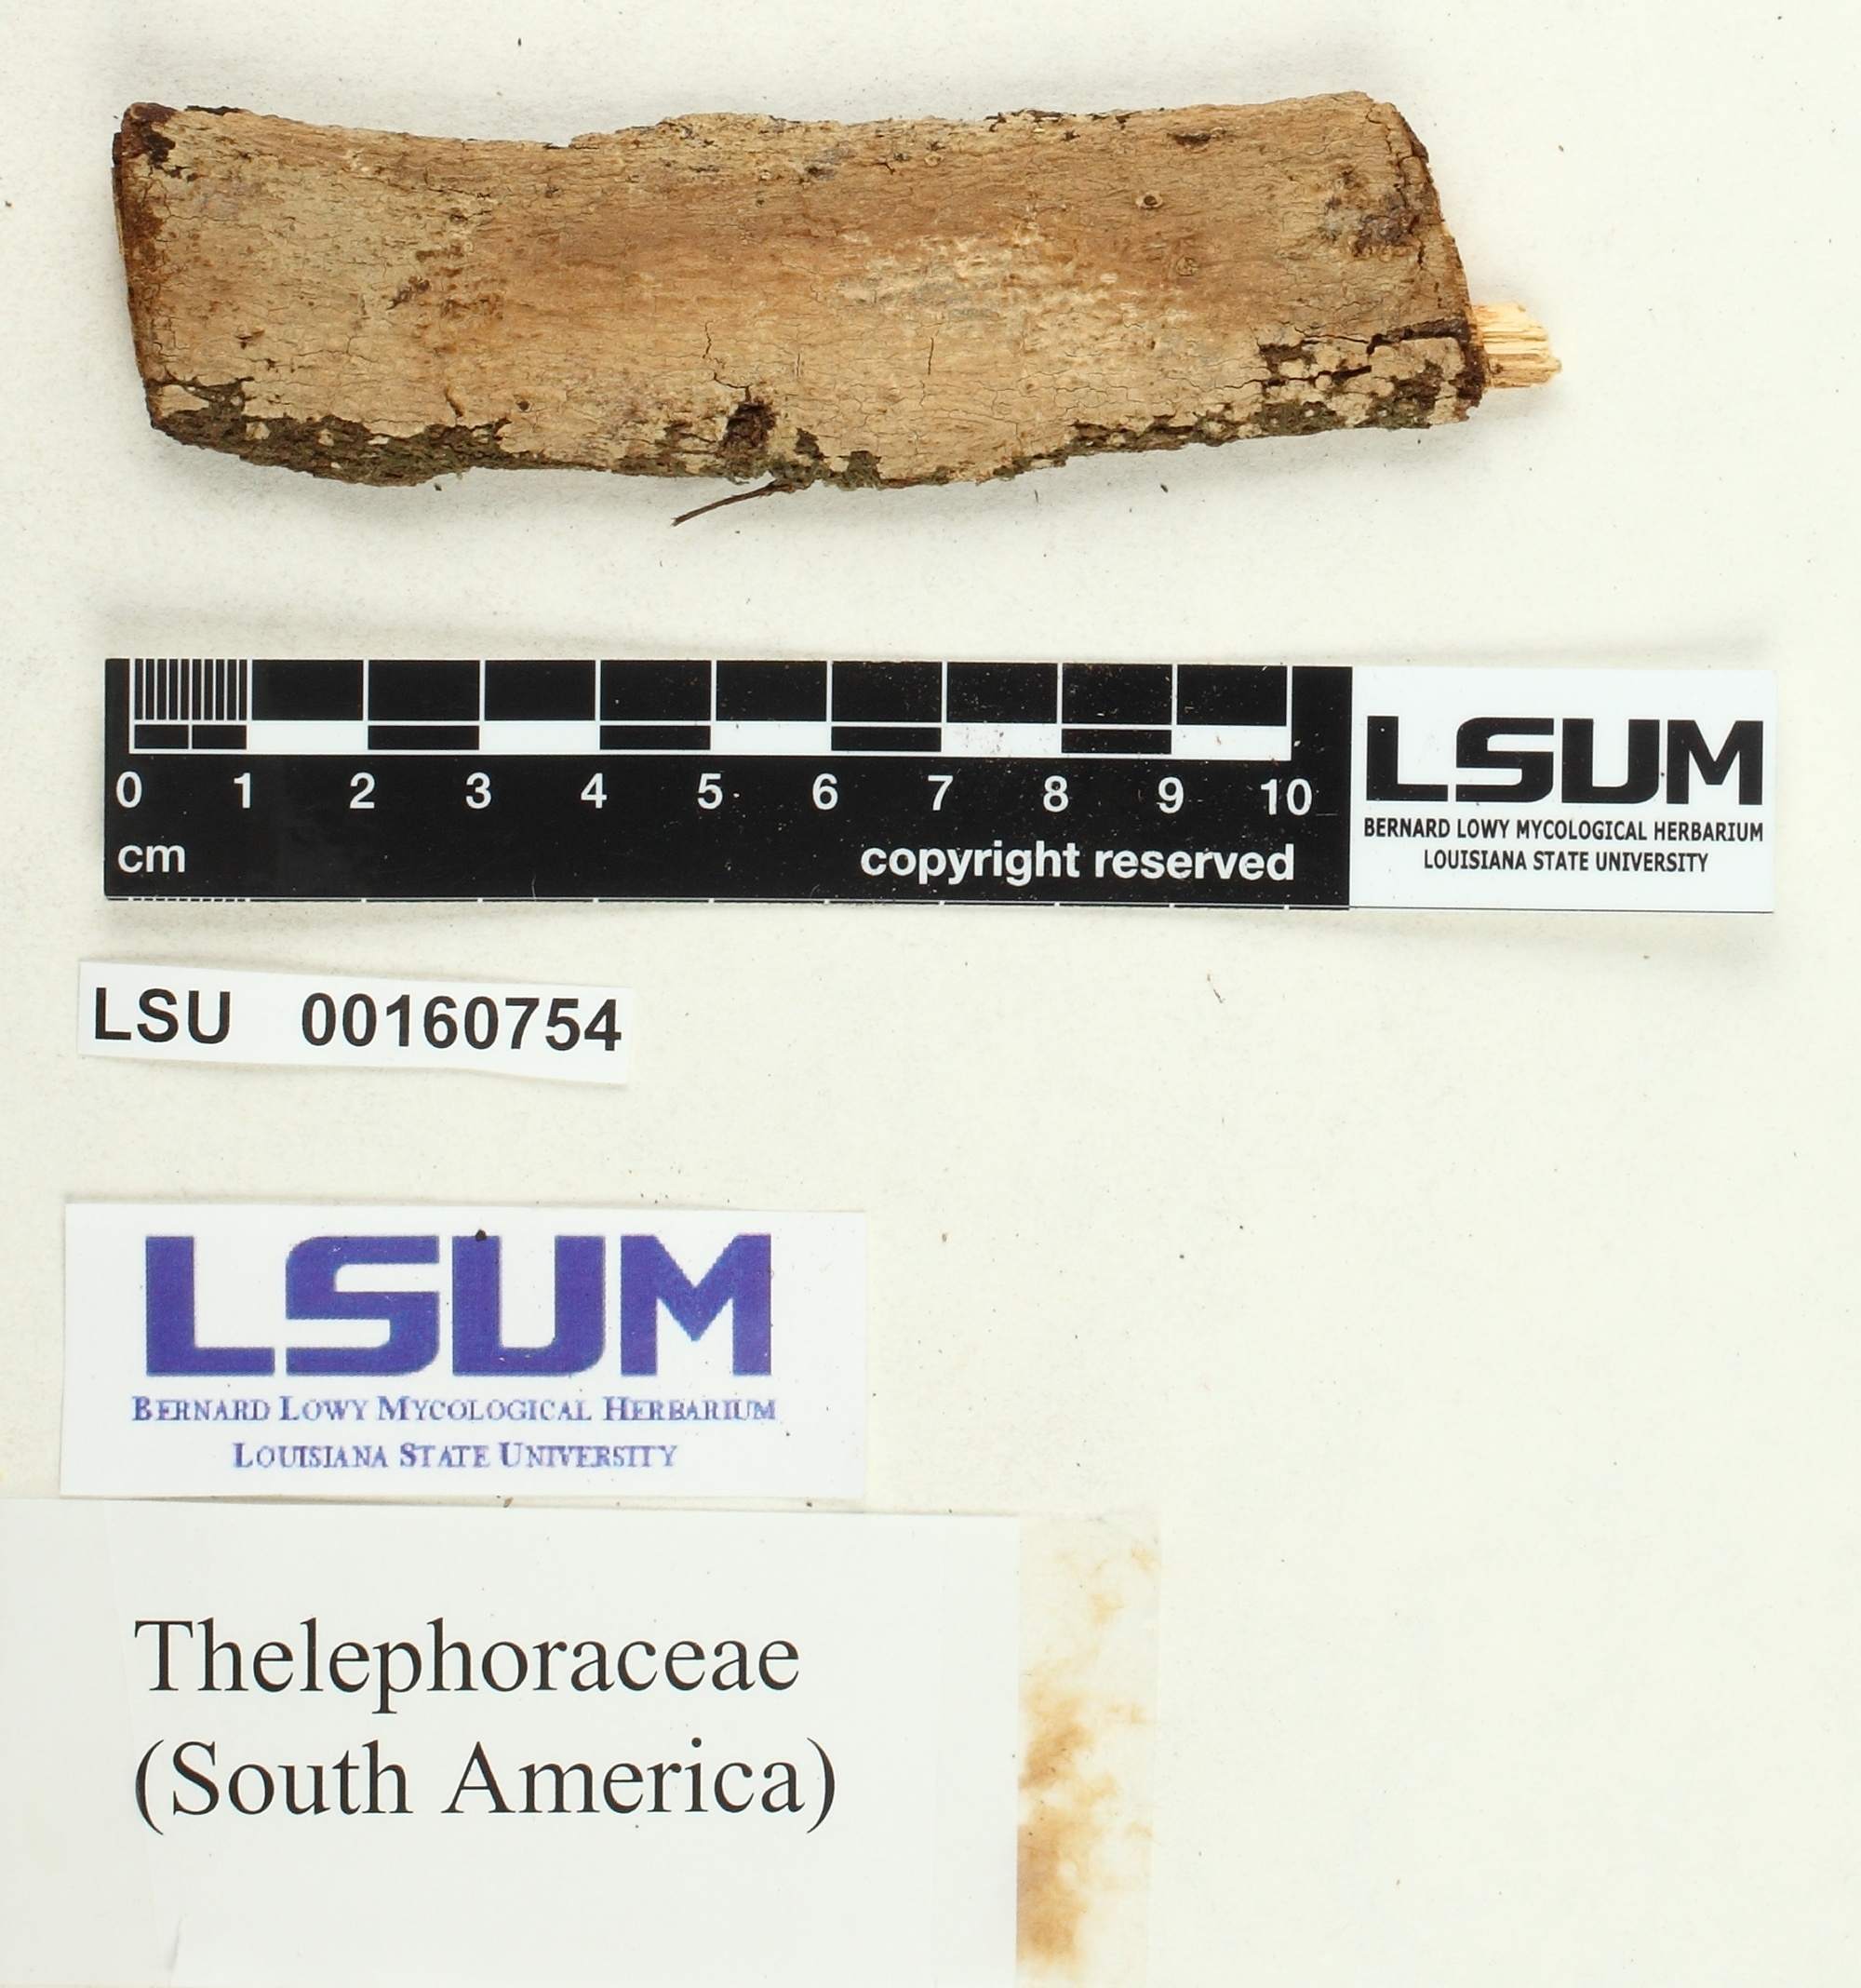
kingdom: Fungi
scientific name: Fungi
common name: Fungi
